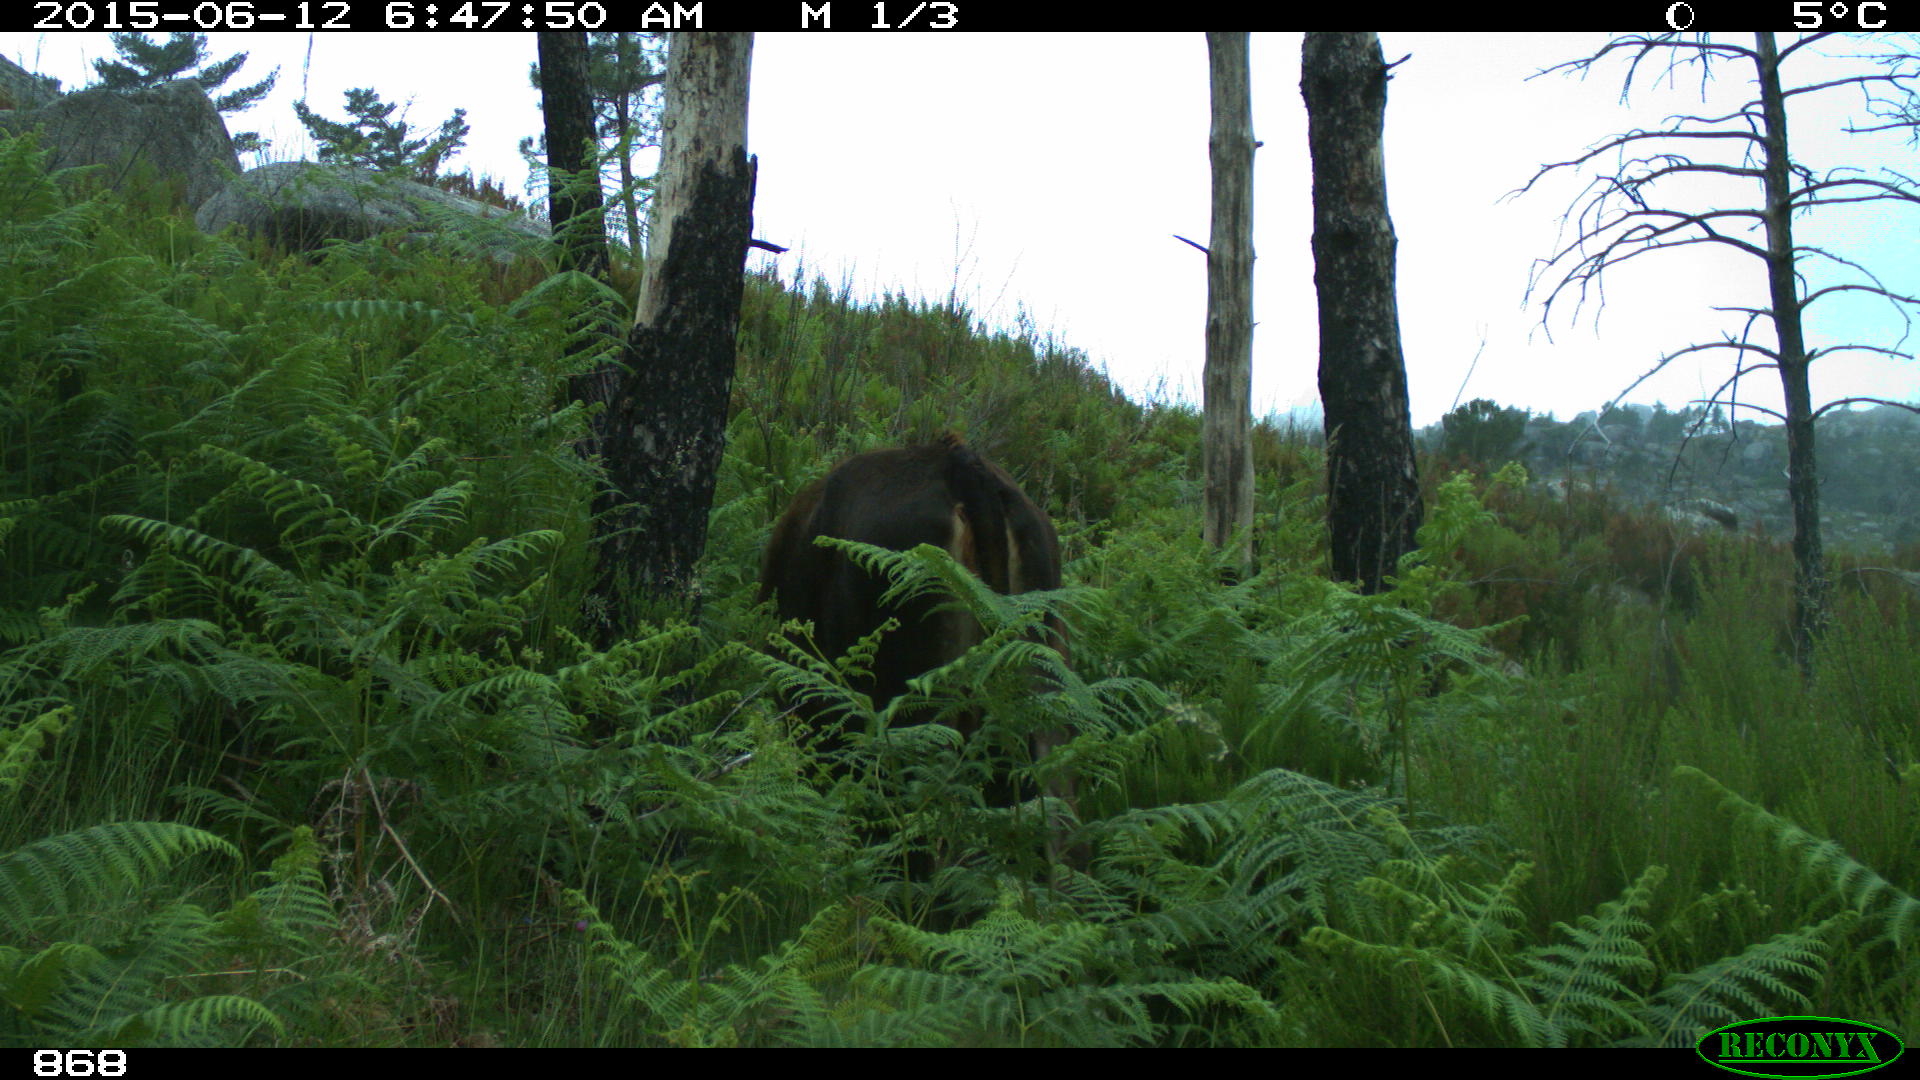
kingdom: Animalia
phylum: Chordata
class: Mammalia
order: Artiodactyla
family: Bovidae
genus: Bos
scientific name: Bos taurus
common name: Domesticated cattle
